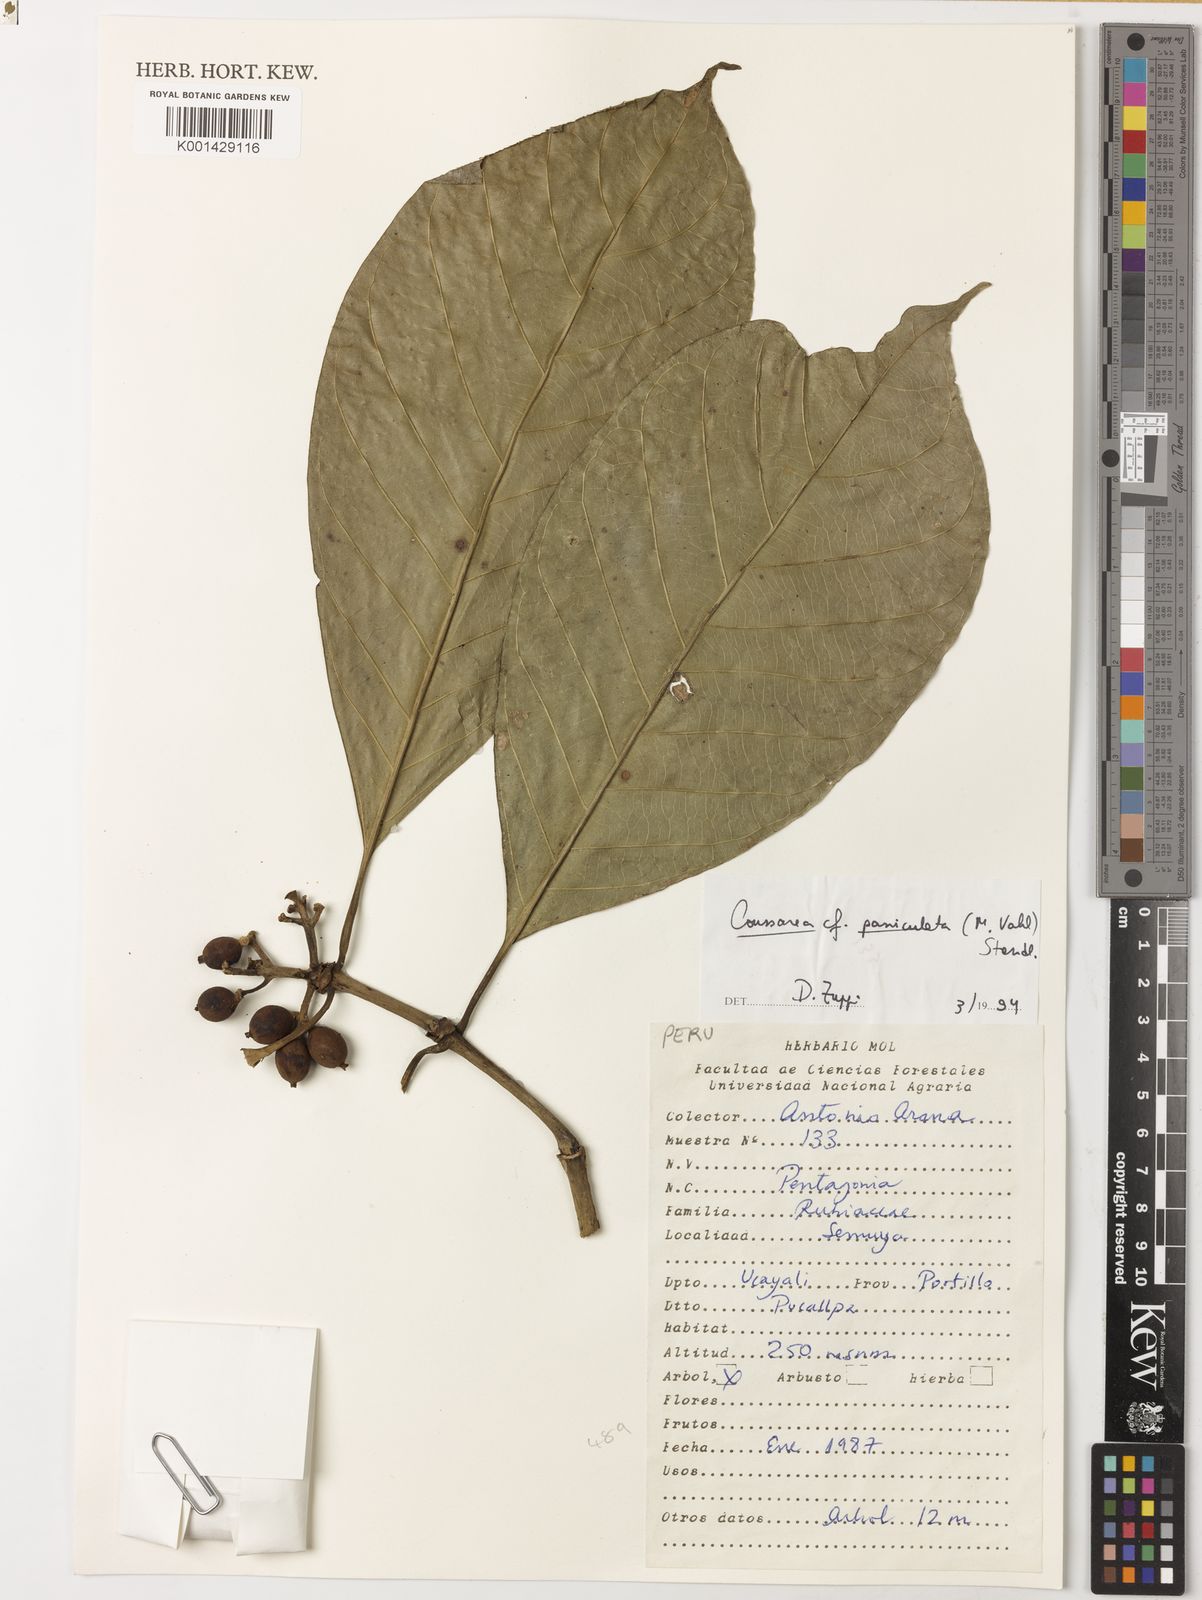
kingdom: Plantae
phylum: Tracheophyta
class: Magnoliopsida
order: Gentianales
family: Rubiaceae
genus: Coussarea
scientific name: Coussarea paniculata
